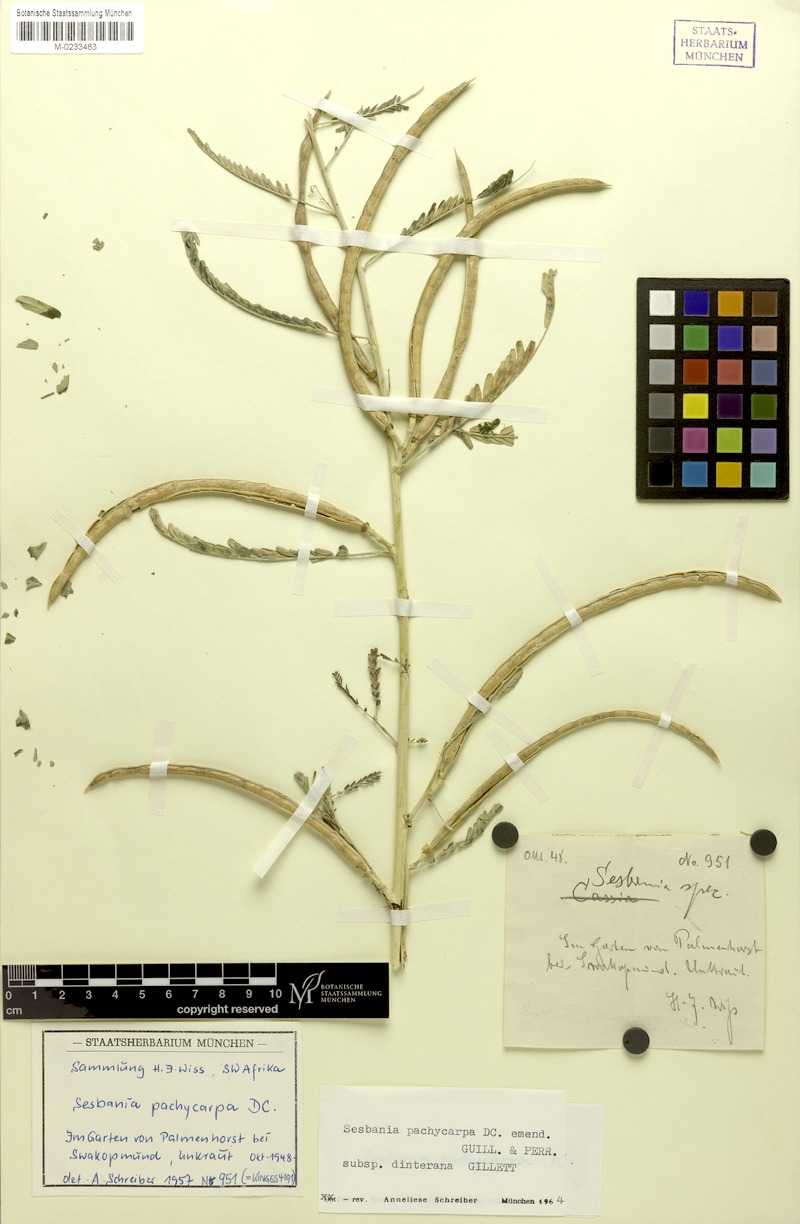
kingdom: Plantae
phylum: Tracheophyta
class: Magnoliopsida
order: Fabales
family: Fabaceae
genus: Sesbania
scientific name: Sesbania pachycarpa
